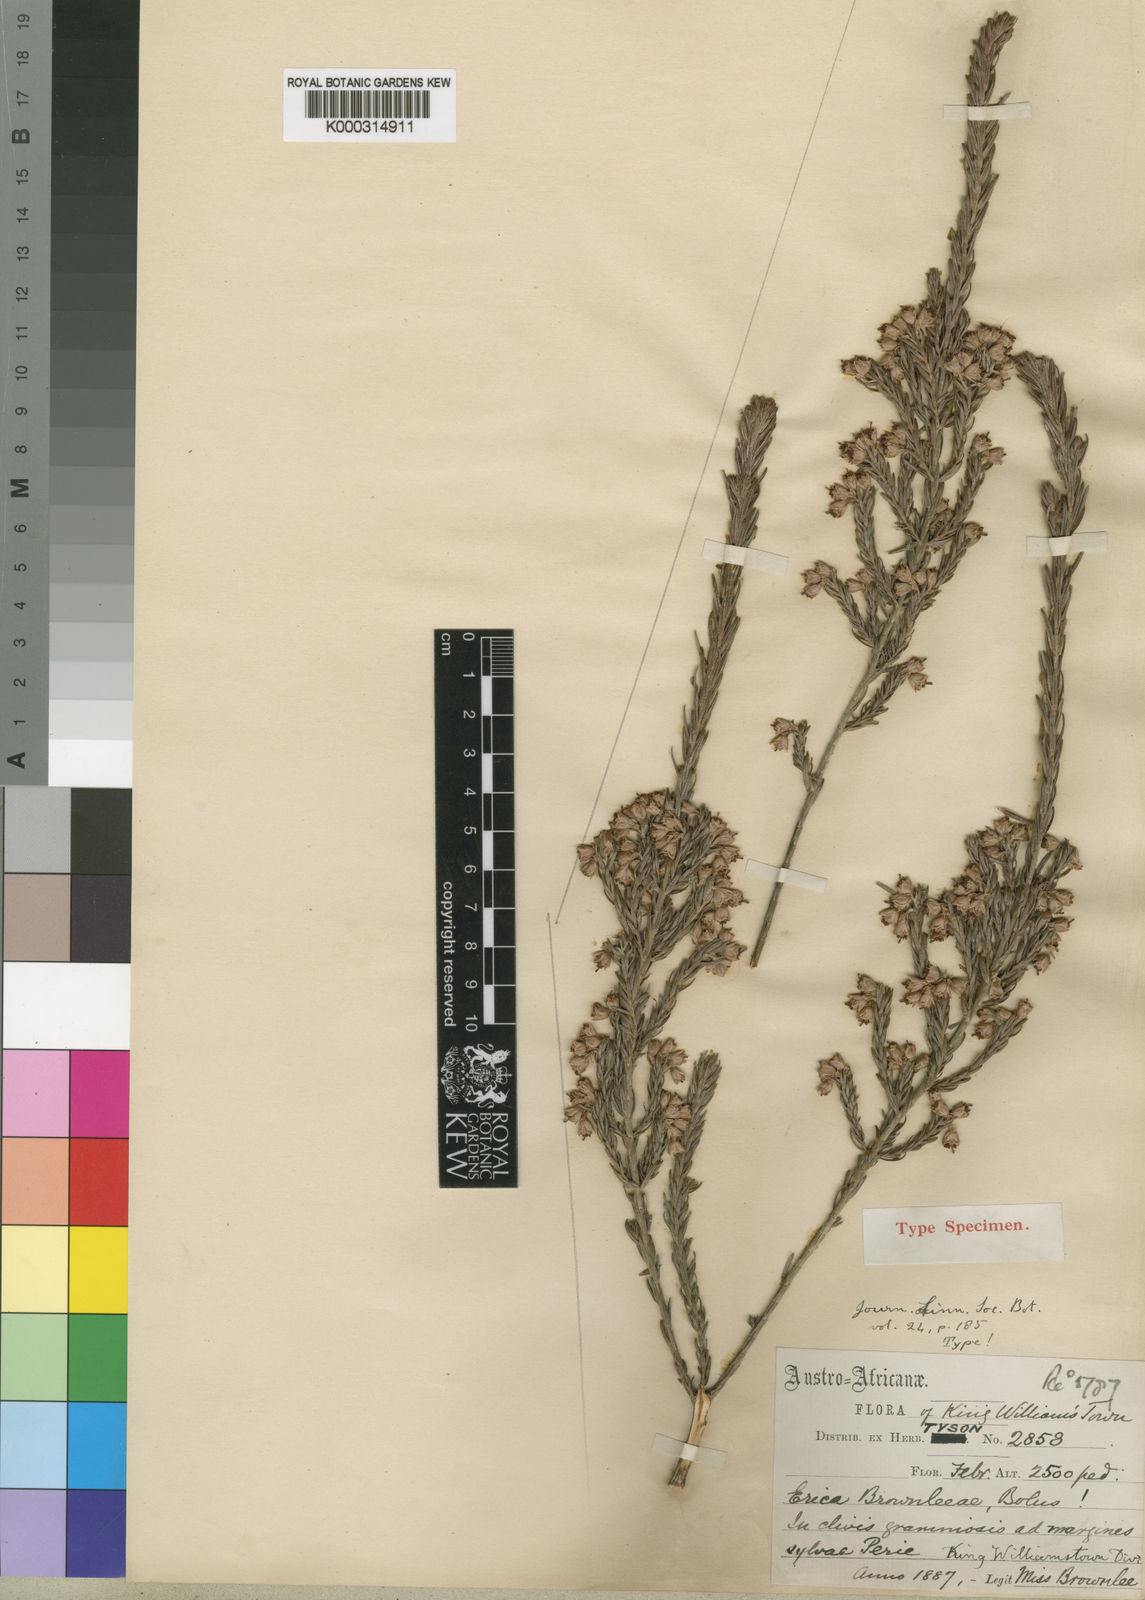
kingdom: Plantae
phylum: Tracheophyta
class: Magnoliopsida
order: Ericales
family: Ericaceae
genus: Erica
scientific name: Erica brownleeae
